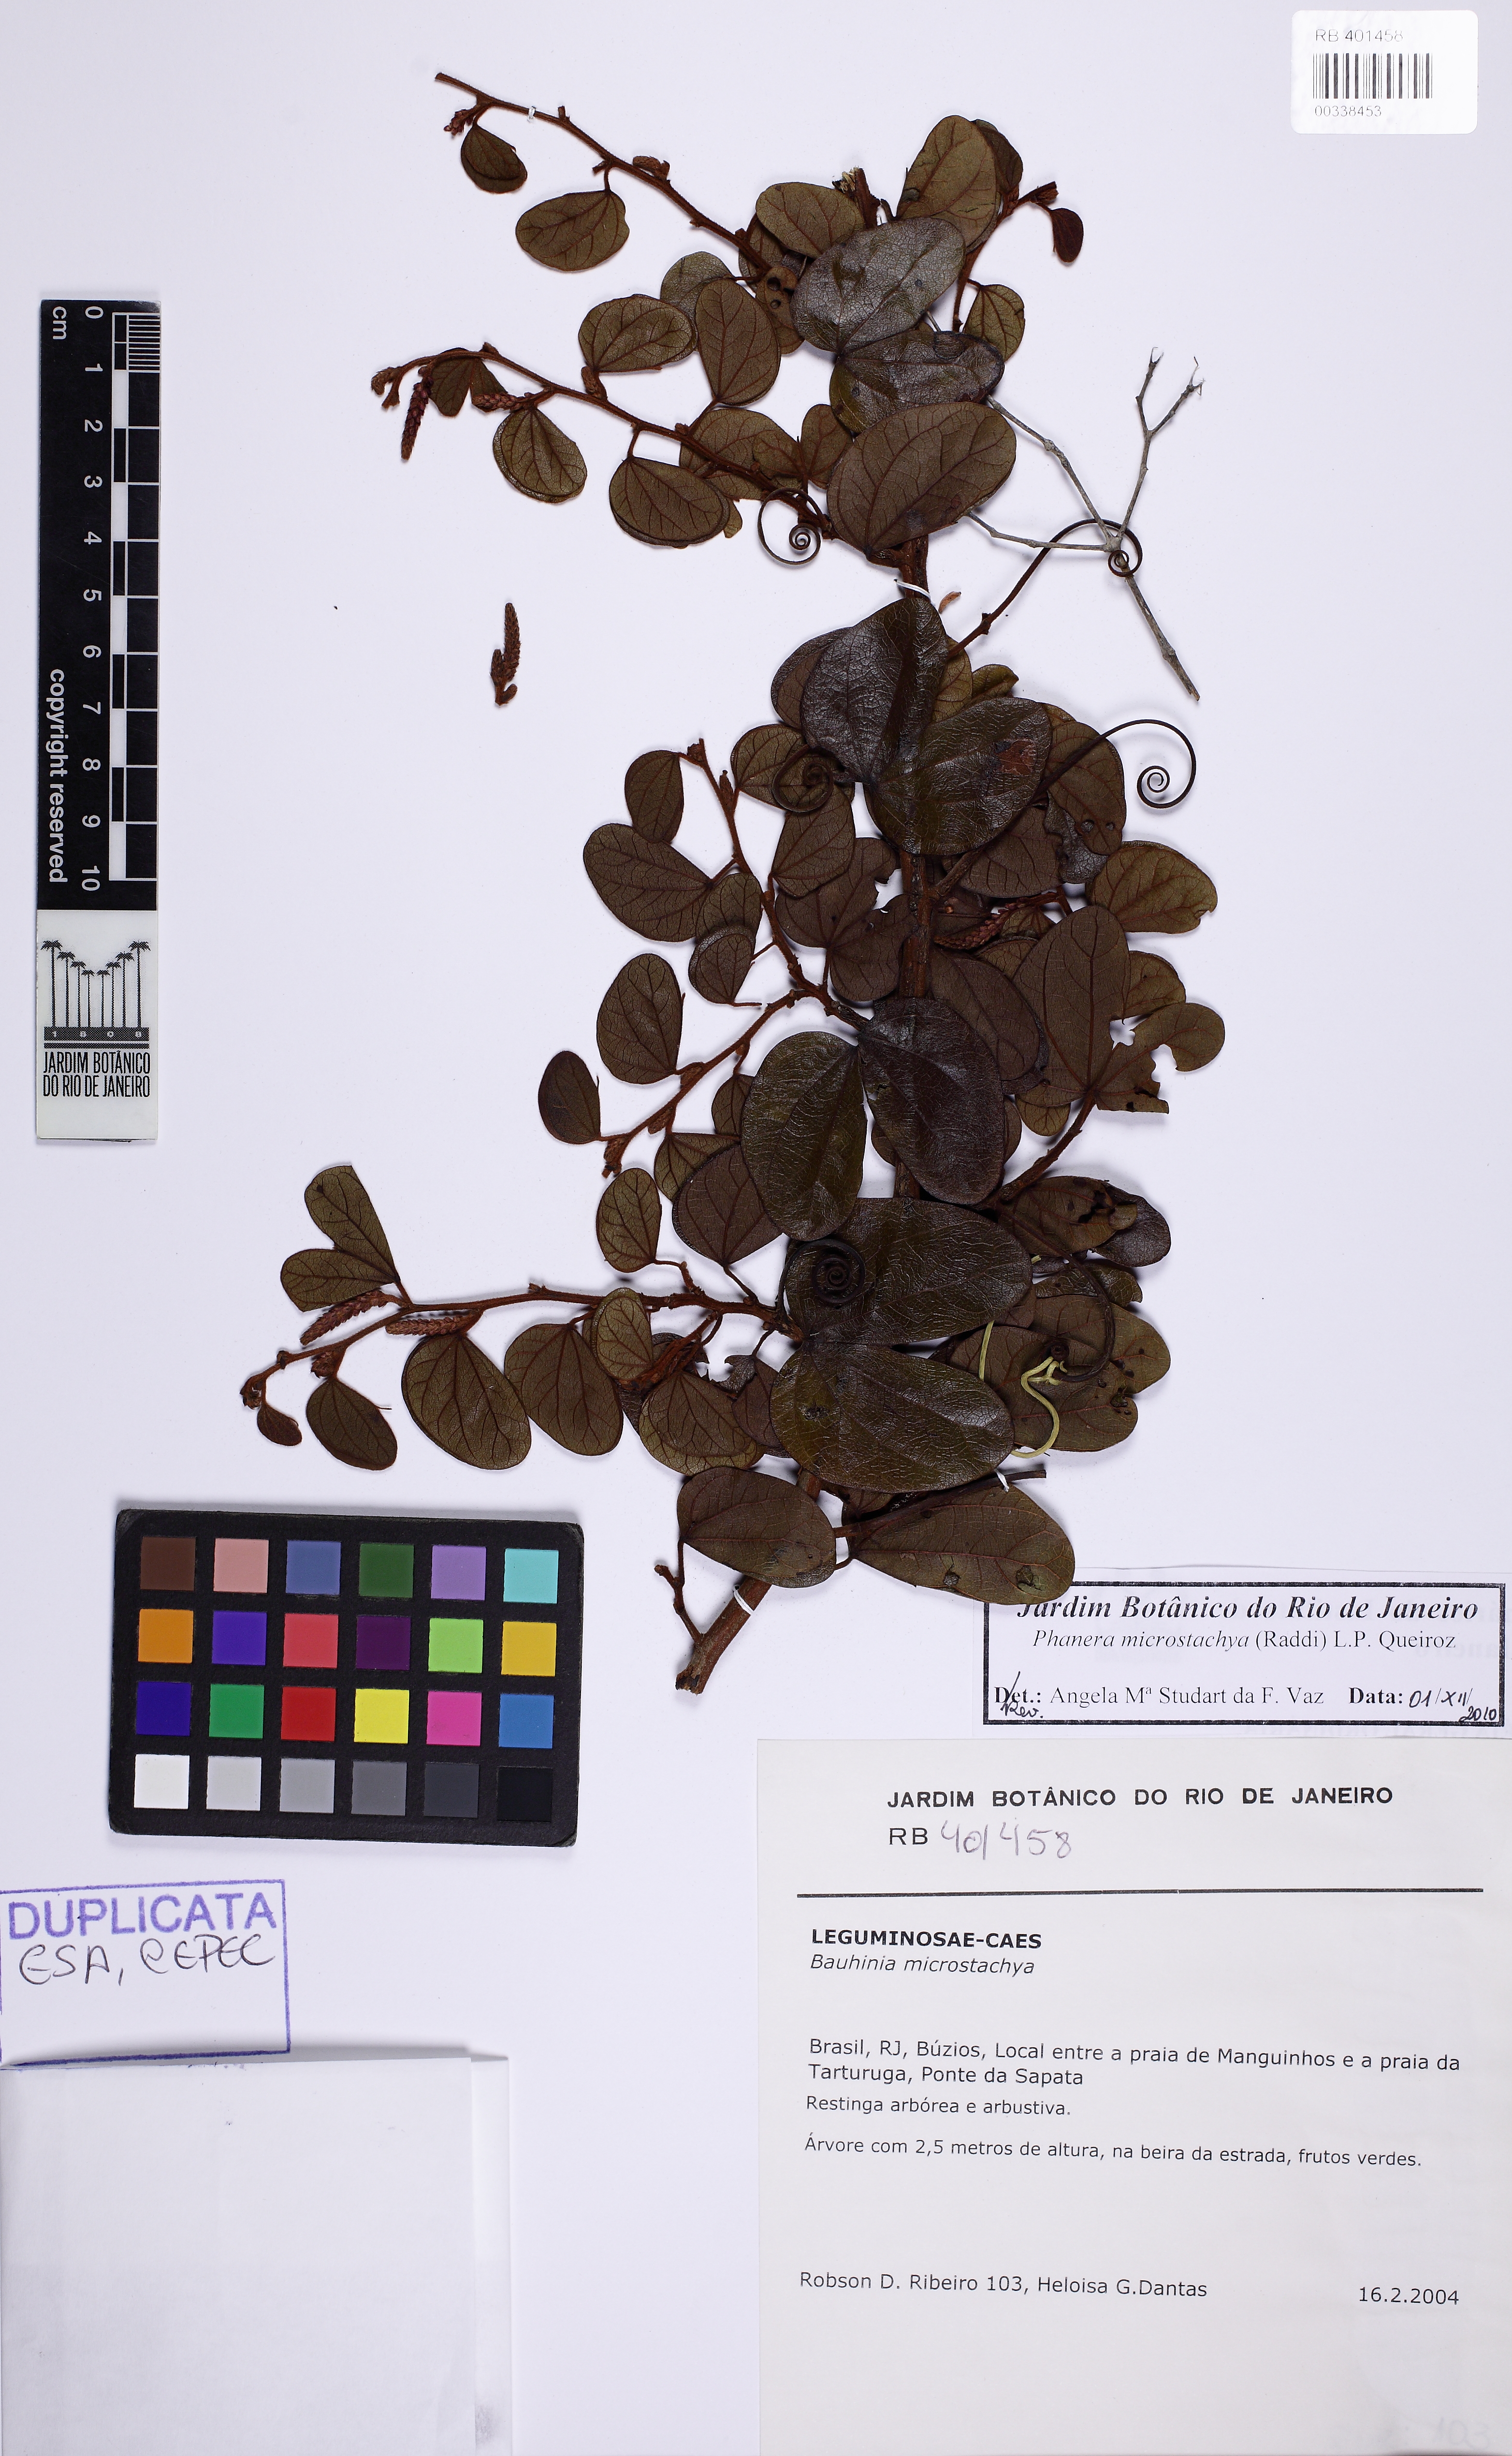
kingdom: Plantae
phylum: Tracheophyta
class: Magnoliopsida
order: Fabales
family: Fabaceae
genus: Schnella
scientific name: Schnella microstachya
